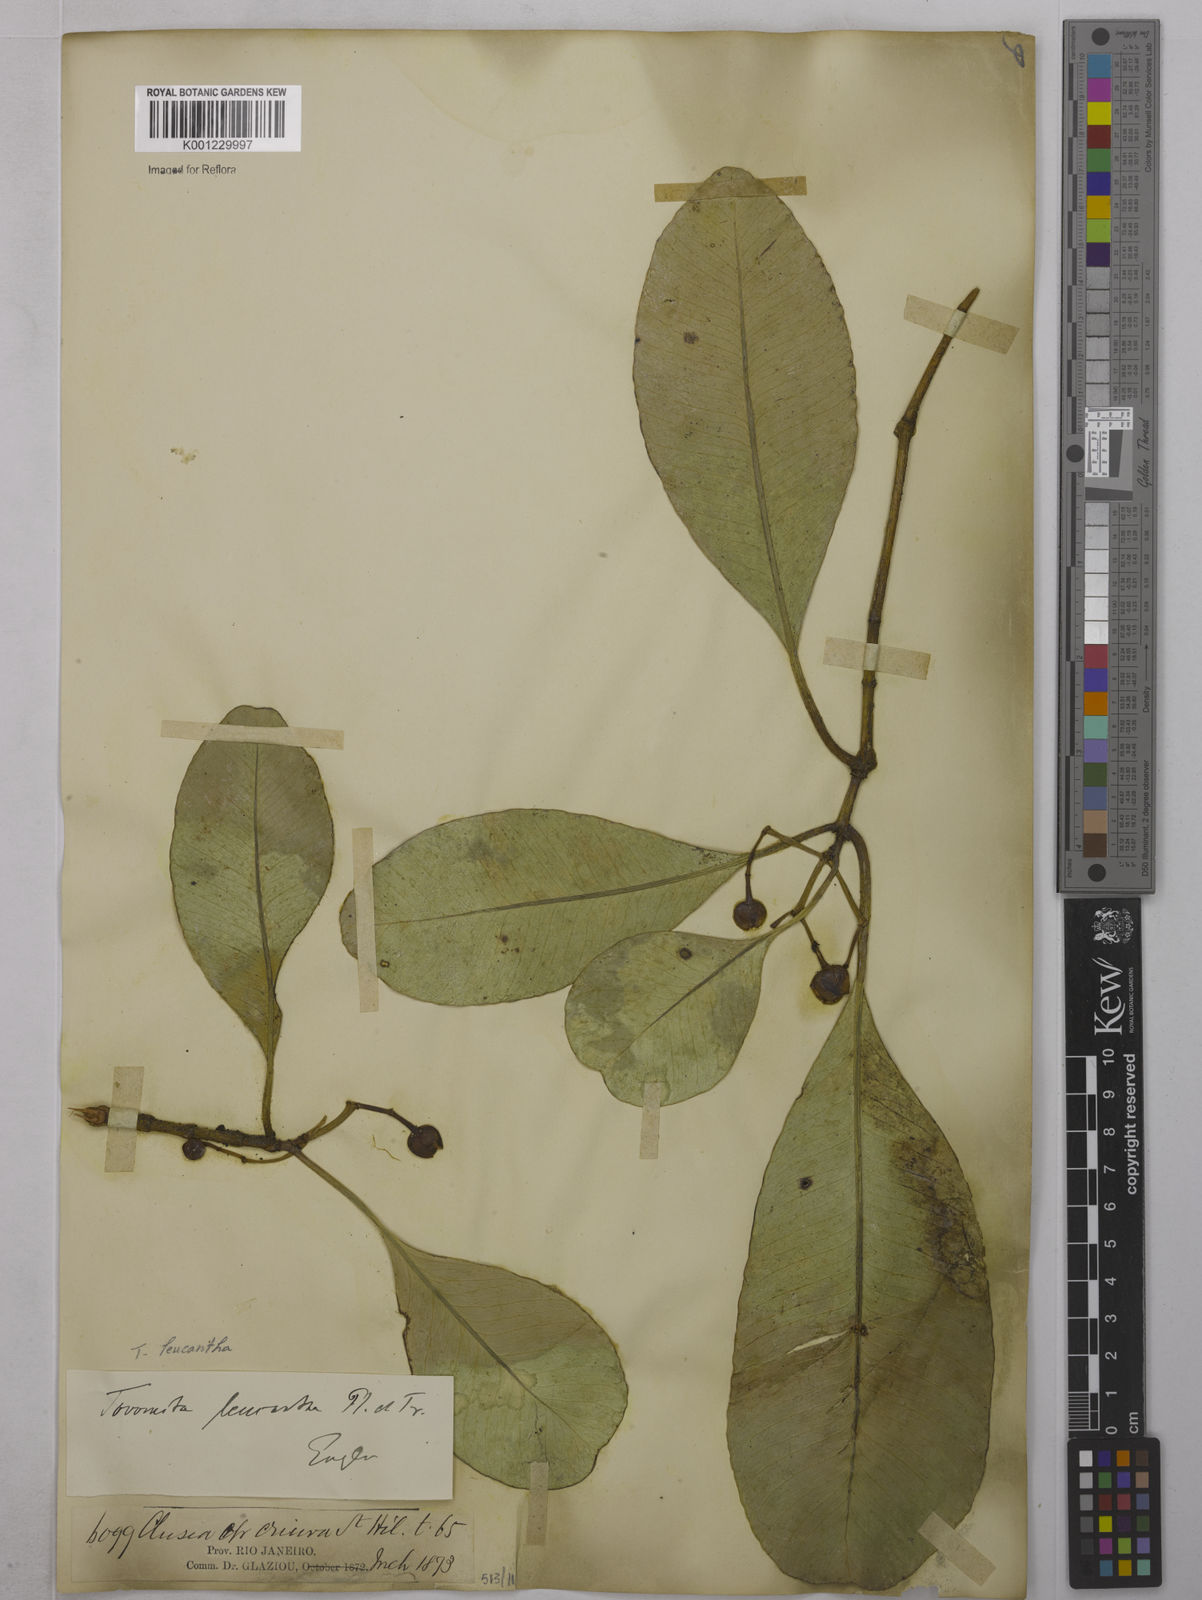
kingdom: Plantae
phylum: Tracheophyta
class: Magnoliopsida
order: Malpighiales
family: Clusiaceae
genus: Tovomita
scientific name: Tovomita leucantha
